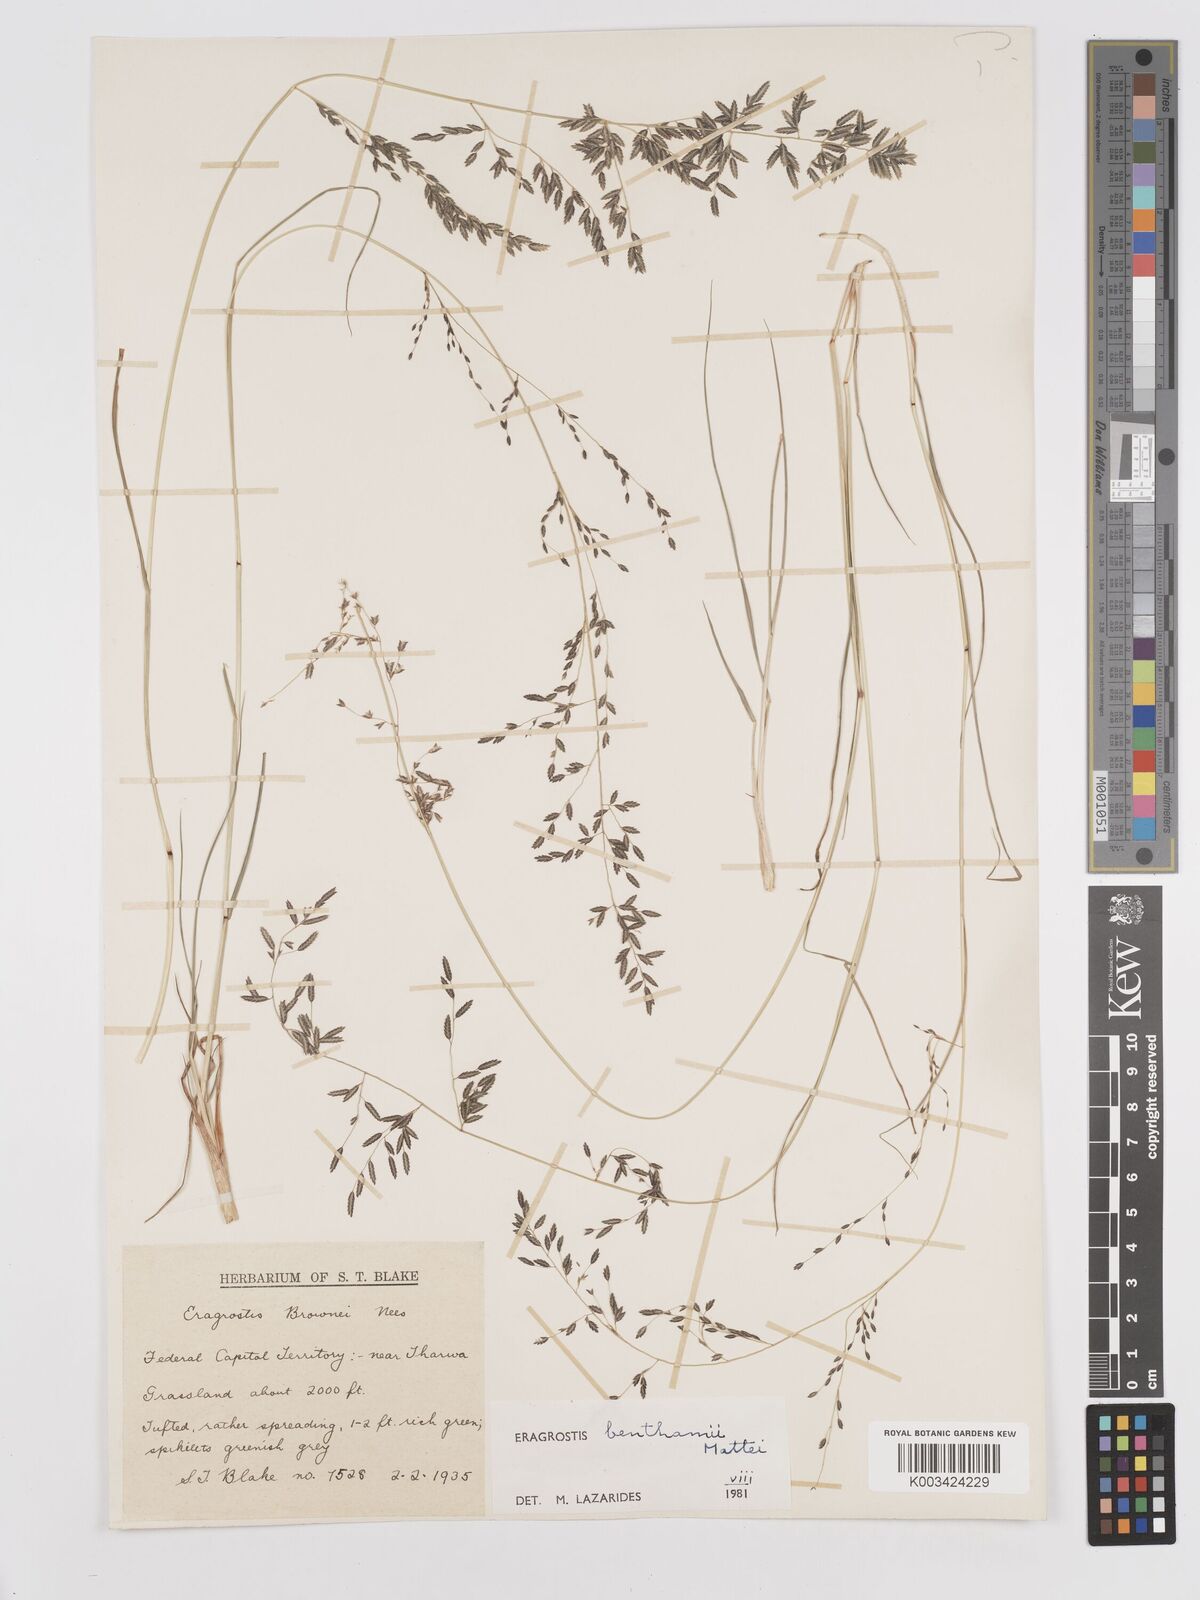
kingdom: Plantae
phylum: Tracheophyta
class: Liliopsida
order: Poales
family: Poaceae
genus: Eragrostis
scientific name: Eragrostis brownii
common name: Lovegrass
